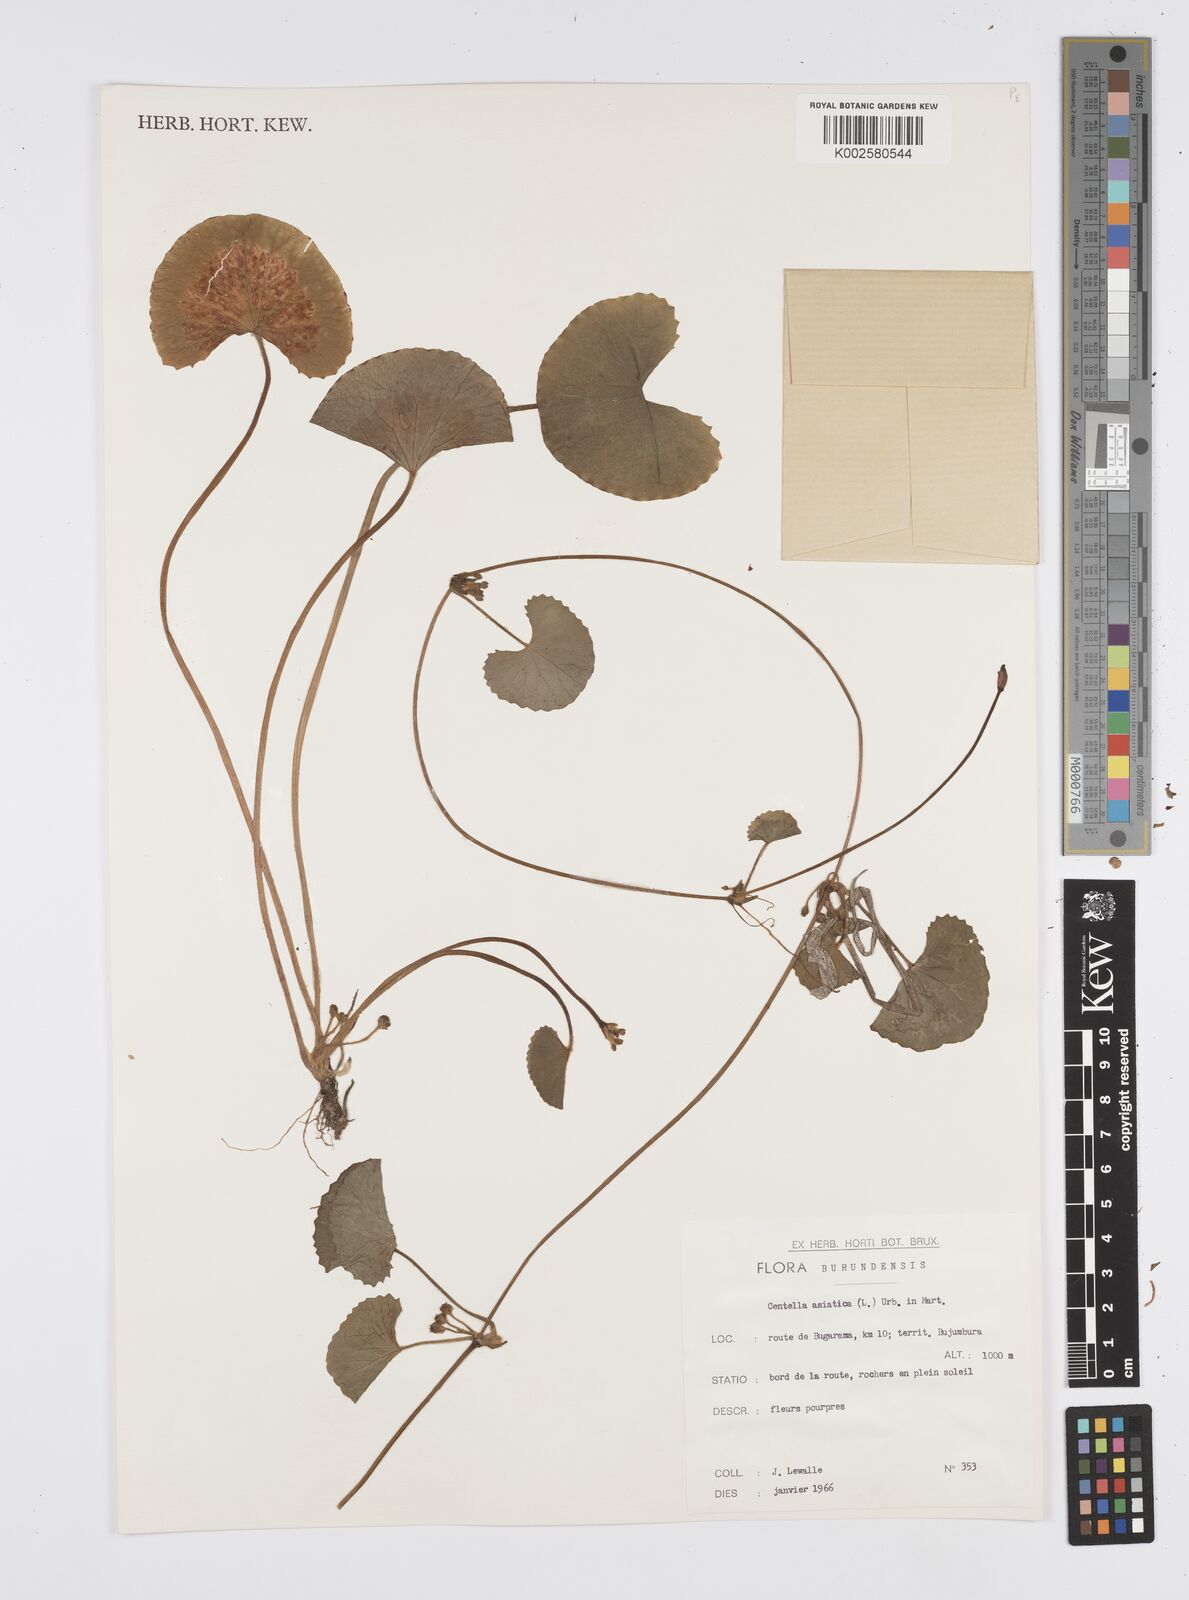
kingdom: Plantae
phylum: Tracheophyta
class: Magnoliopsida
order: Apiales
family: Apiaceae
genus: Centella
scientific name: Centella asiatica
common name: Spadeleaf
